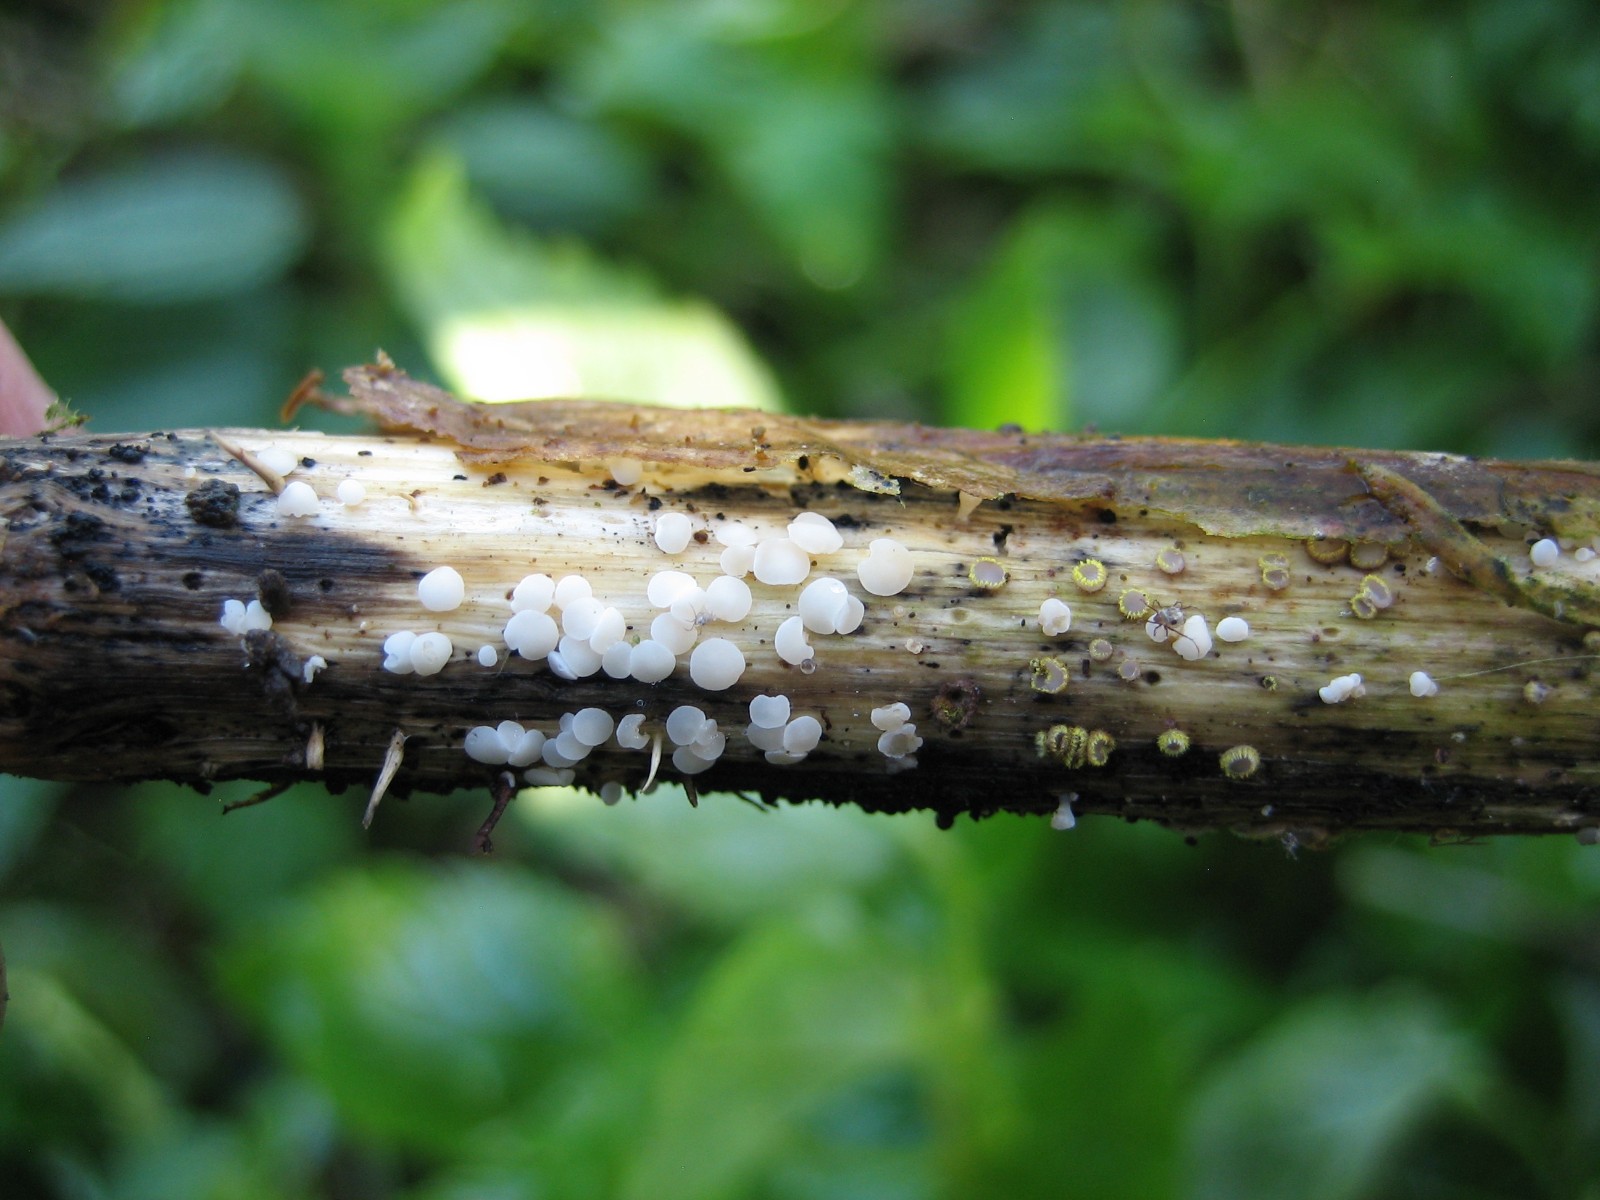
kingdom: Fungi
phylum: Ascomycota
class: Leotiomycetes
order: Helotiales
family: Pezizellaceae
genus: Calycina
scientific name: Calycina herbarum
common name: elfenbens-gulskive
